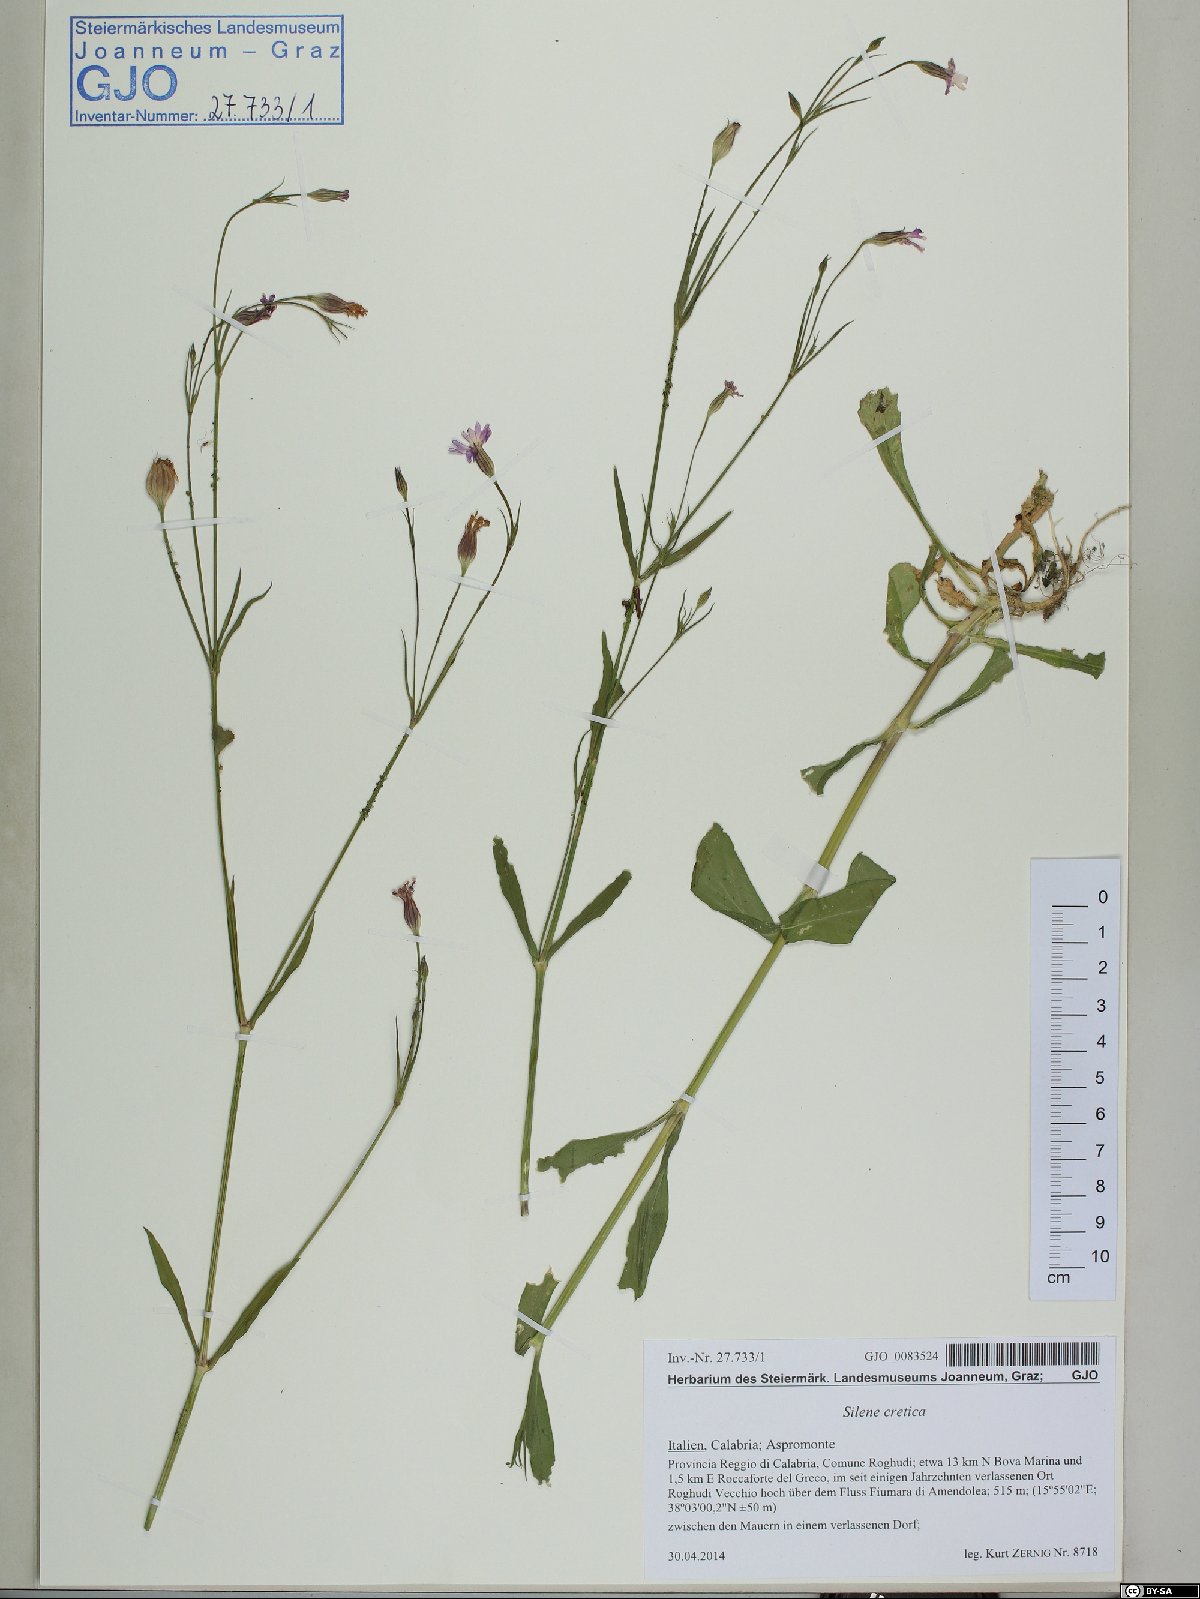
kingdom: Plantae
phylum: Tracheophyta
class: Magnoliopsida
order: Caryophyllales
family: Caryophyllaceae
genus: Silene
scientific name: Silene cretica
